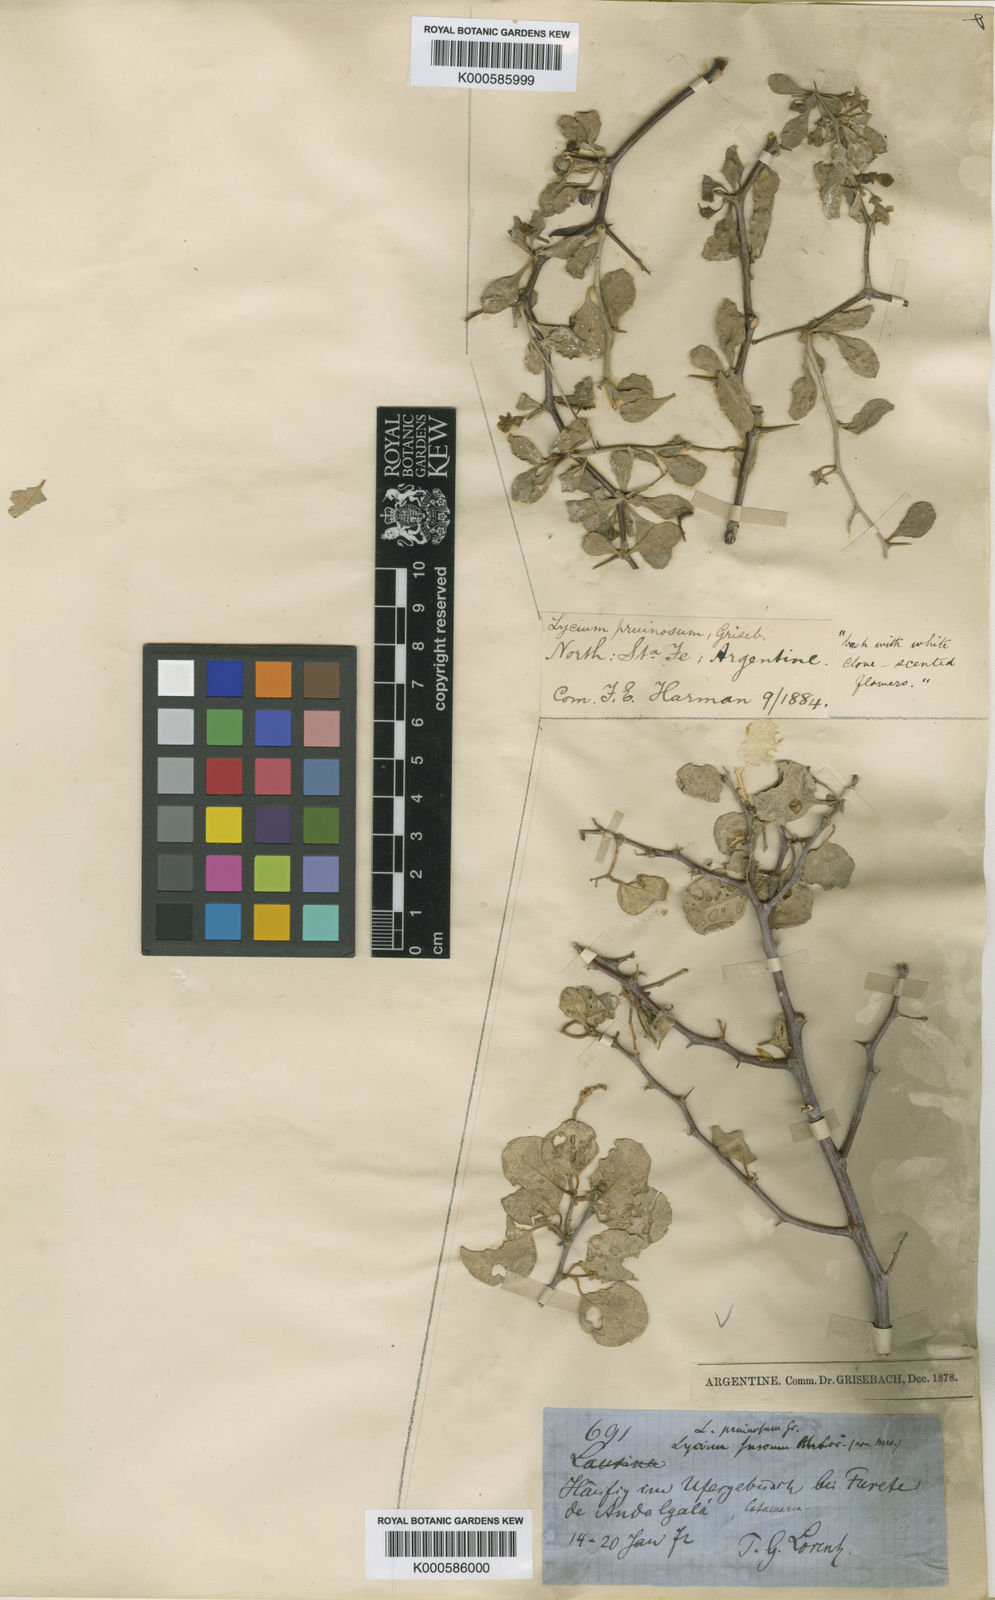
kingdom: Plantae
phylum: Tracheophyta
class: Magnoliopsida
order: Solanales
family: Solanaceae
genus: Lycium
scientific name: Lycium
